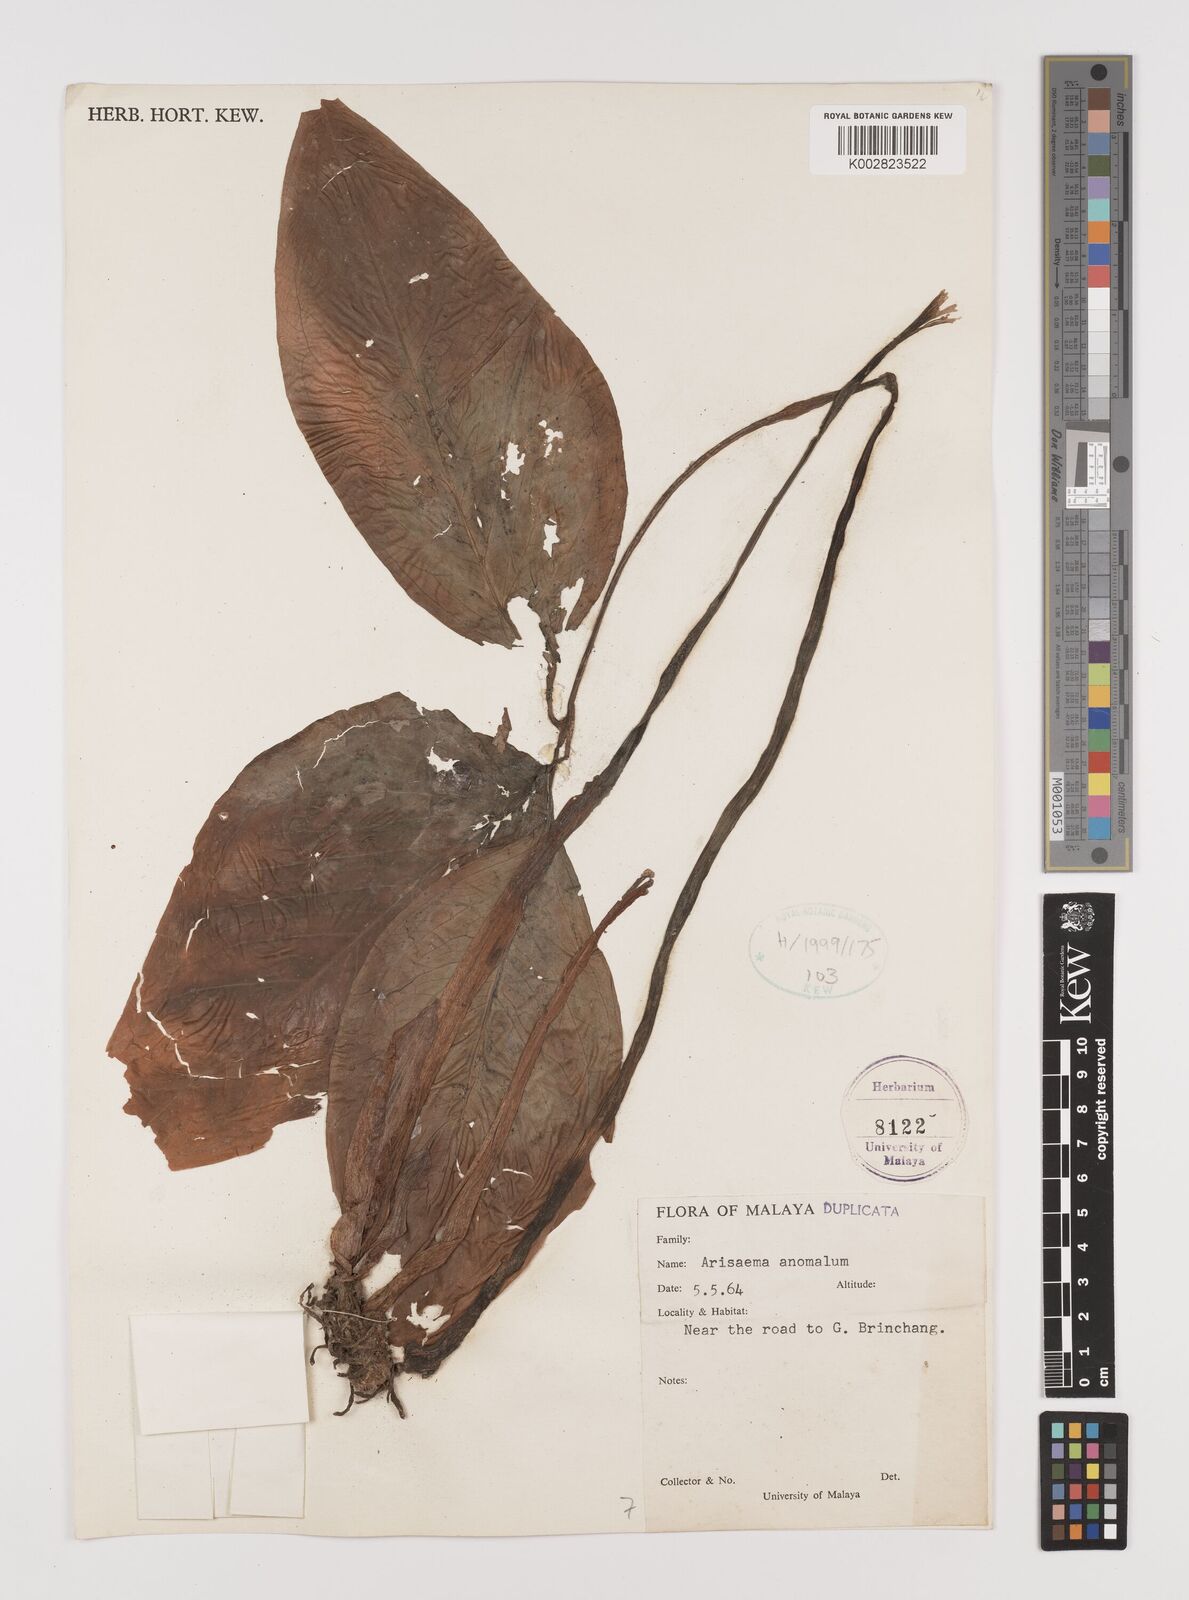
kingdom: Plantae
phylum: Tracheophyta
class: Liliopsida
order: Alismatales
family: Araceae
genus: Arisaema
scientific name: Arisaema anomalum
